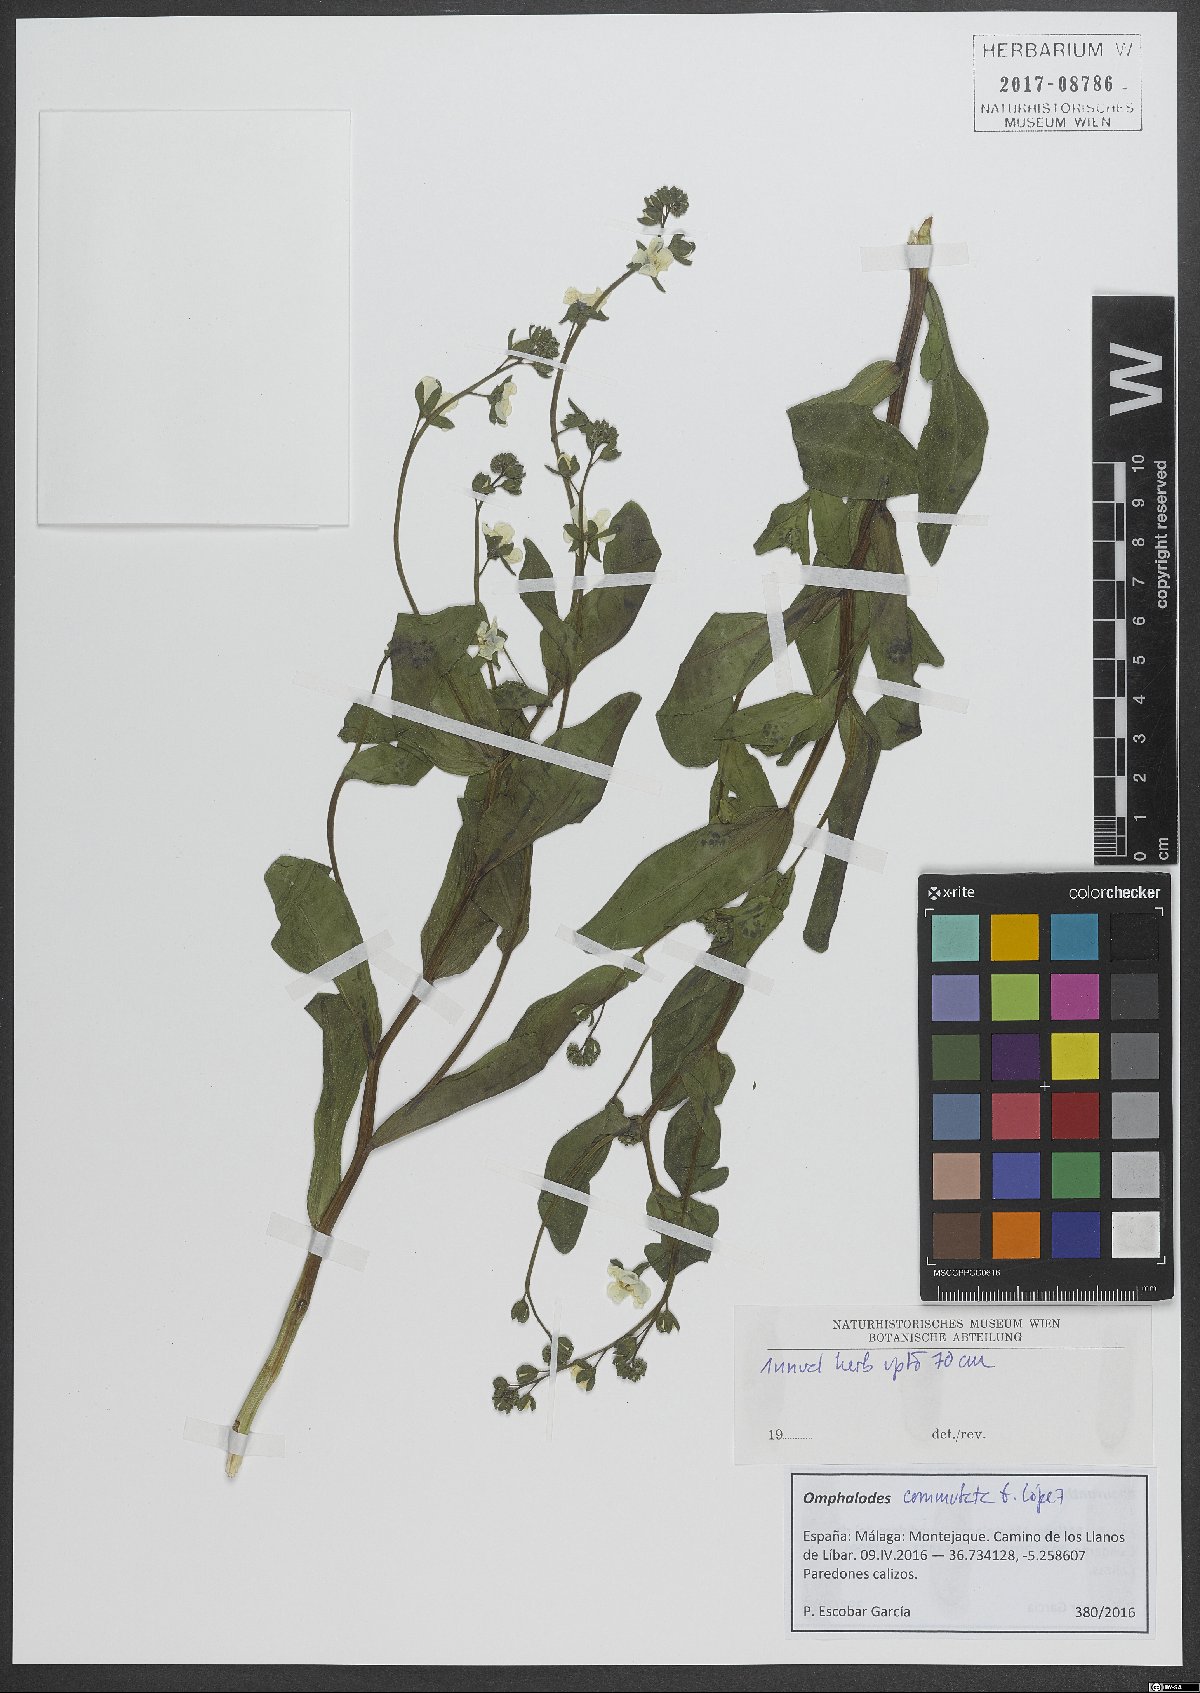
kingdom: Plantae
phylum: Tracheophyta
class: Magnoliopsida
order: Boraginales
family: Boraginaceae
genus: Iberodes
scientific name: Iberodes commutata
